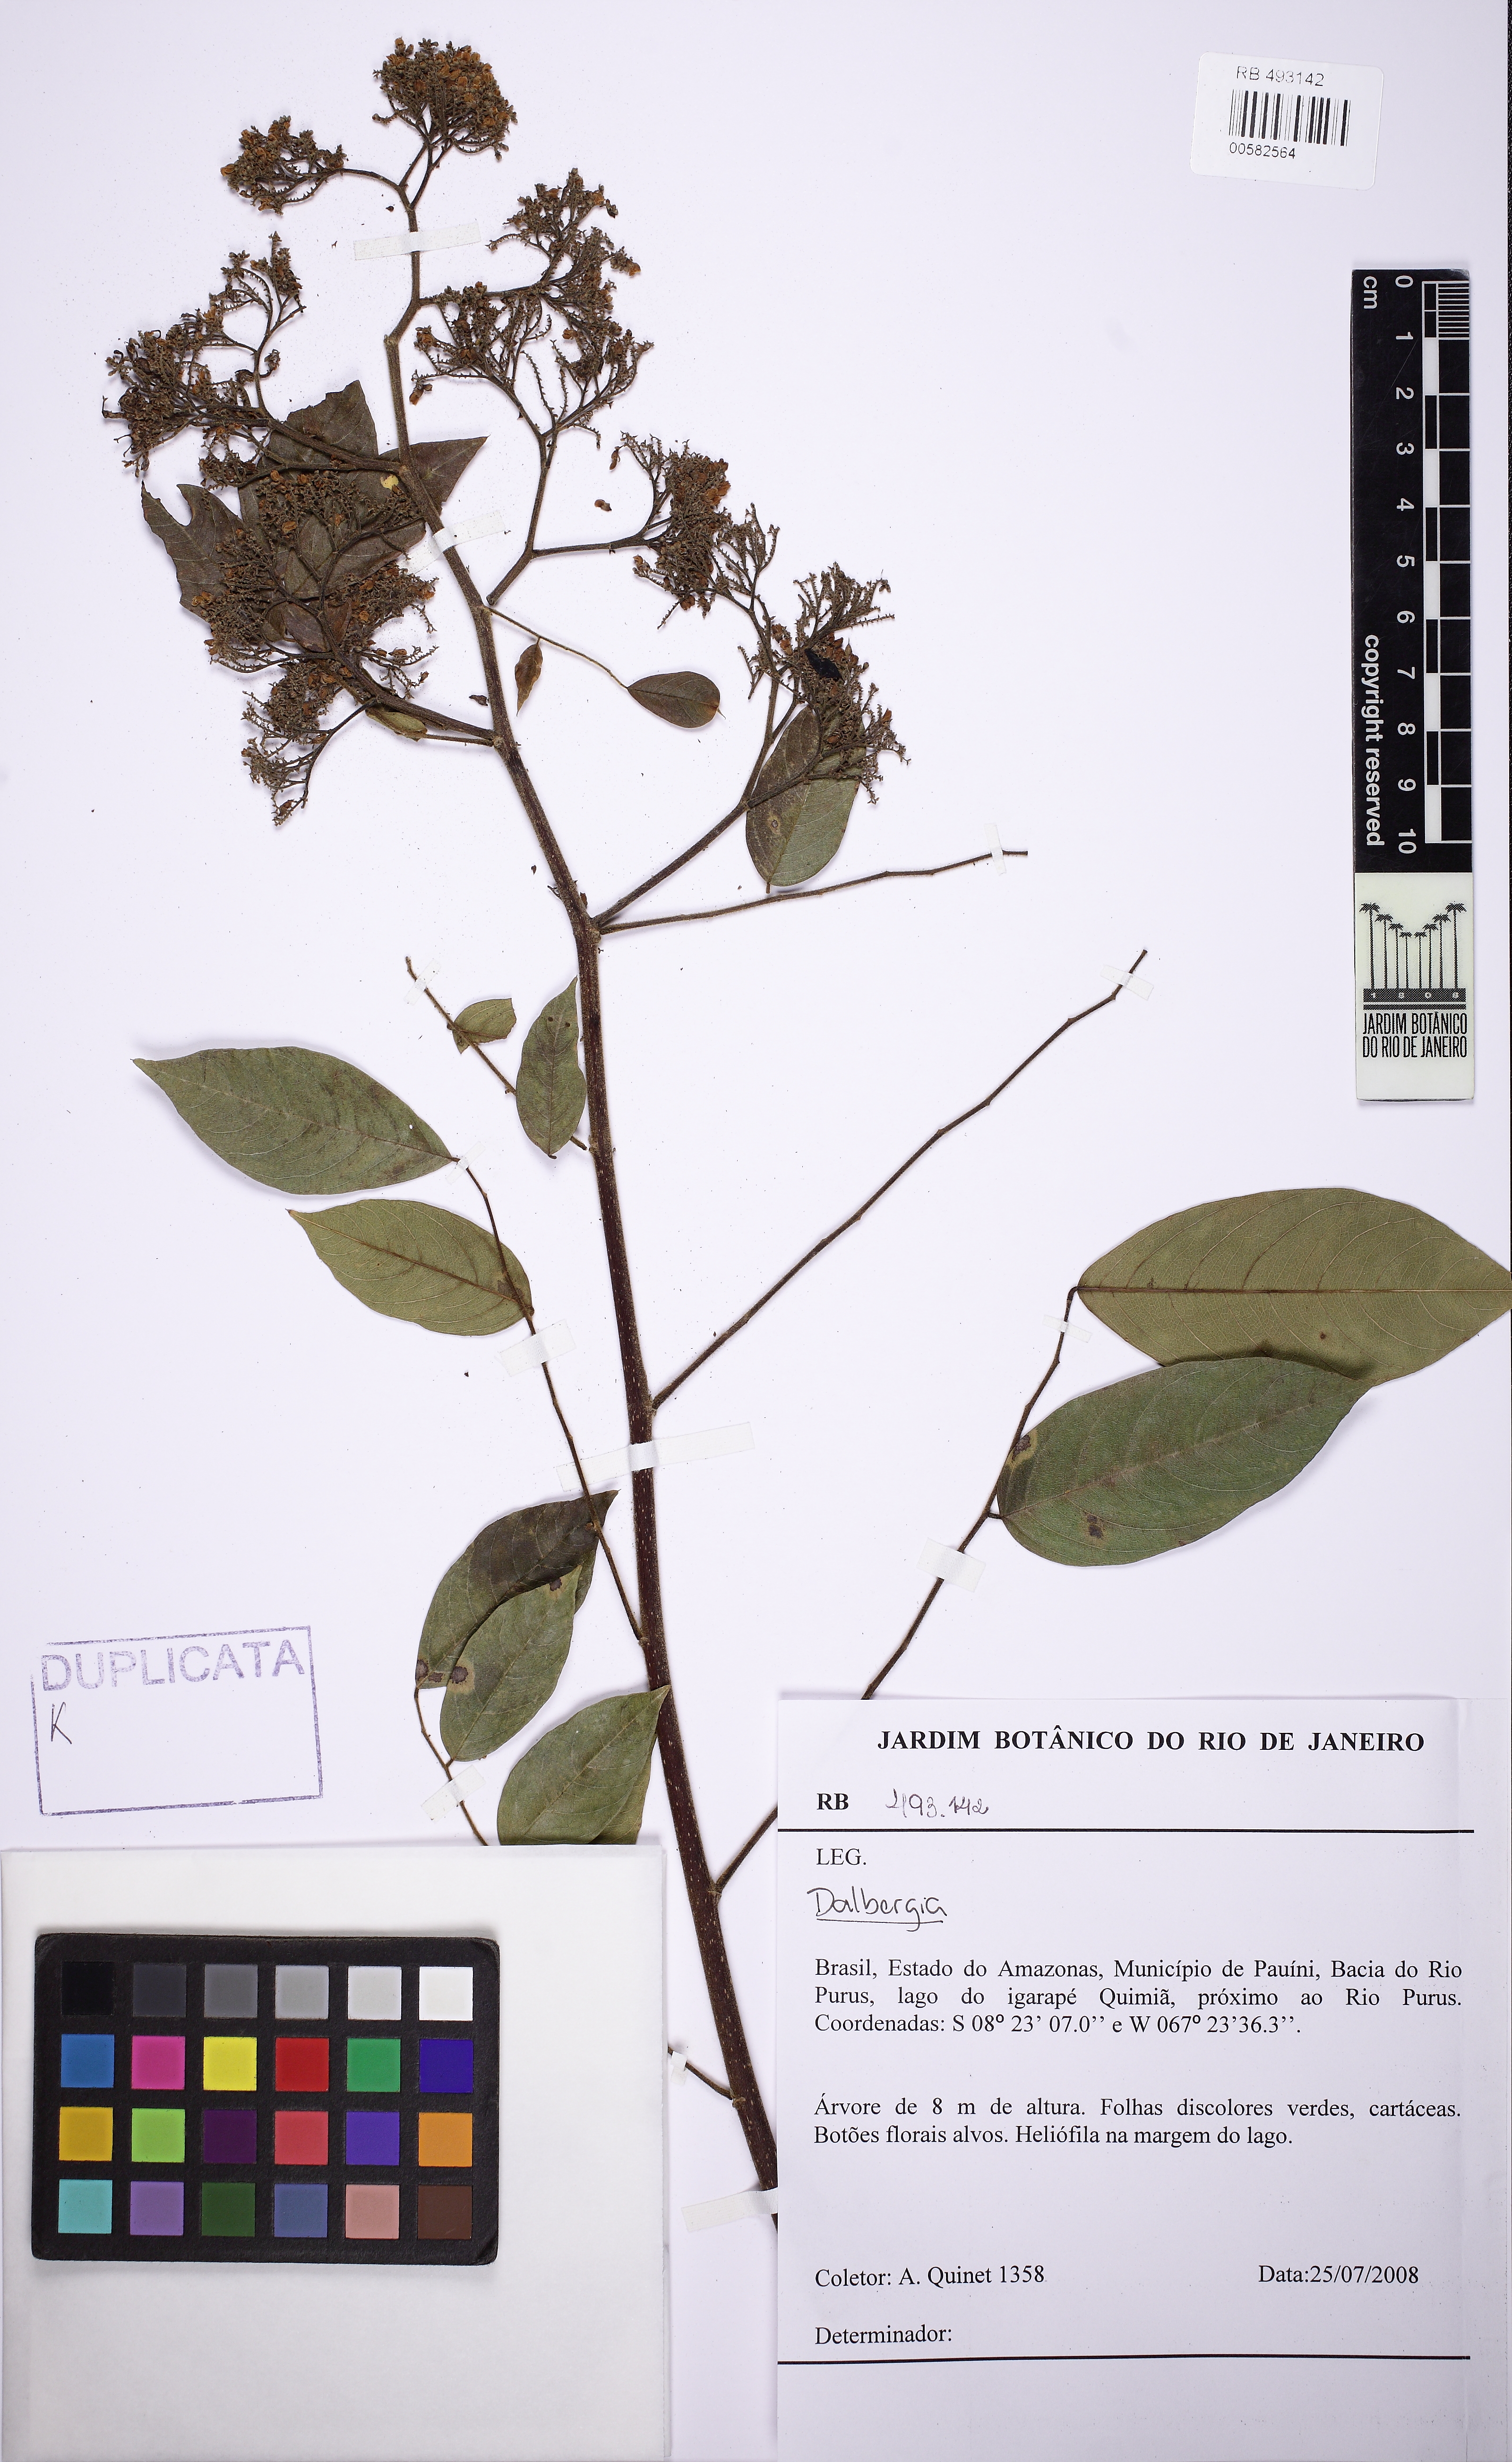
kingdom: Plantae
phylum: Tracheophyta
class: Magnoliopsida
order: Fabales
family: Fabaceae
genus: Dalbergia
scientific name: Dalbergia
